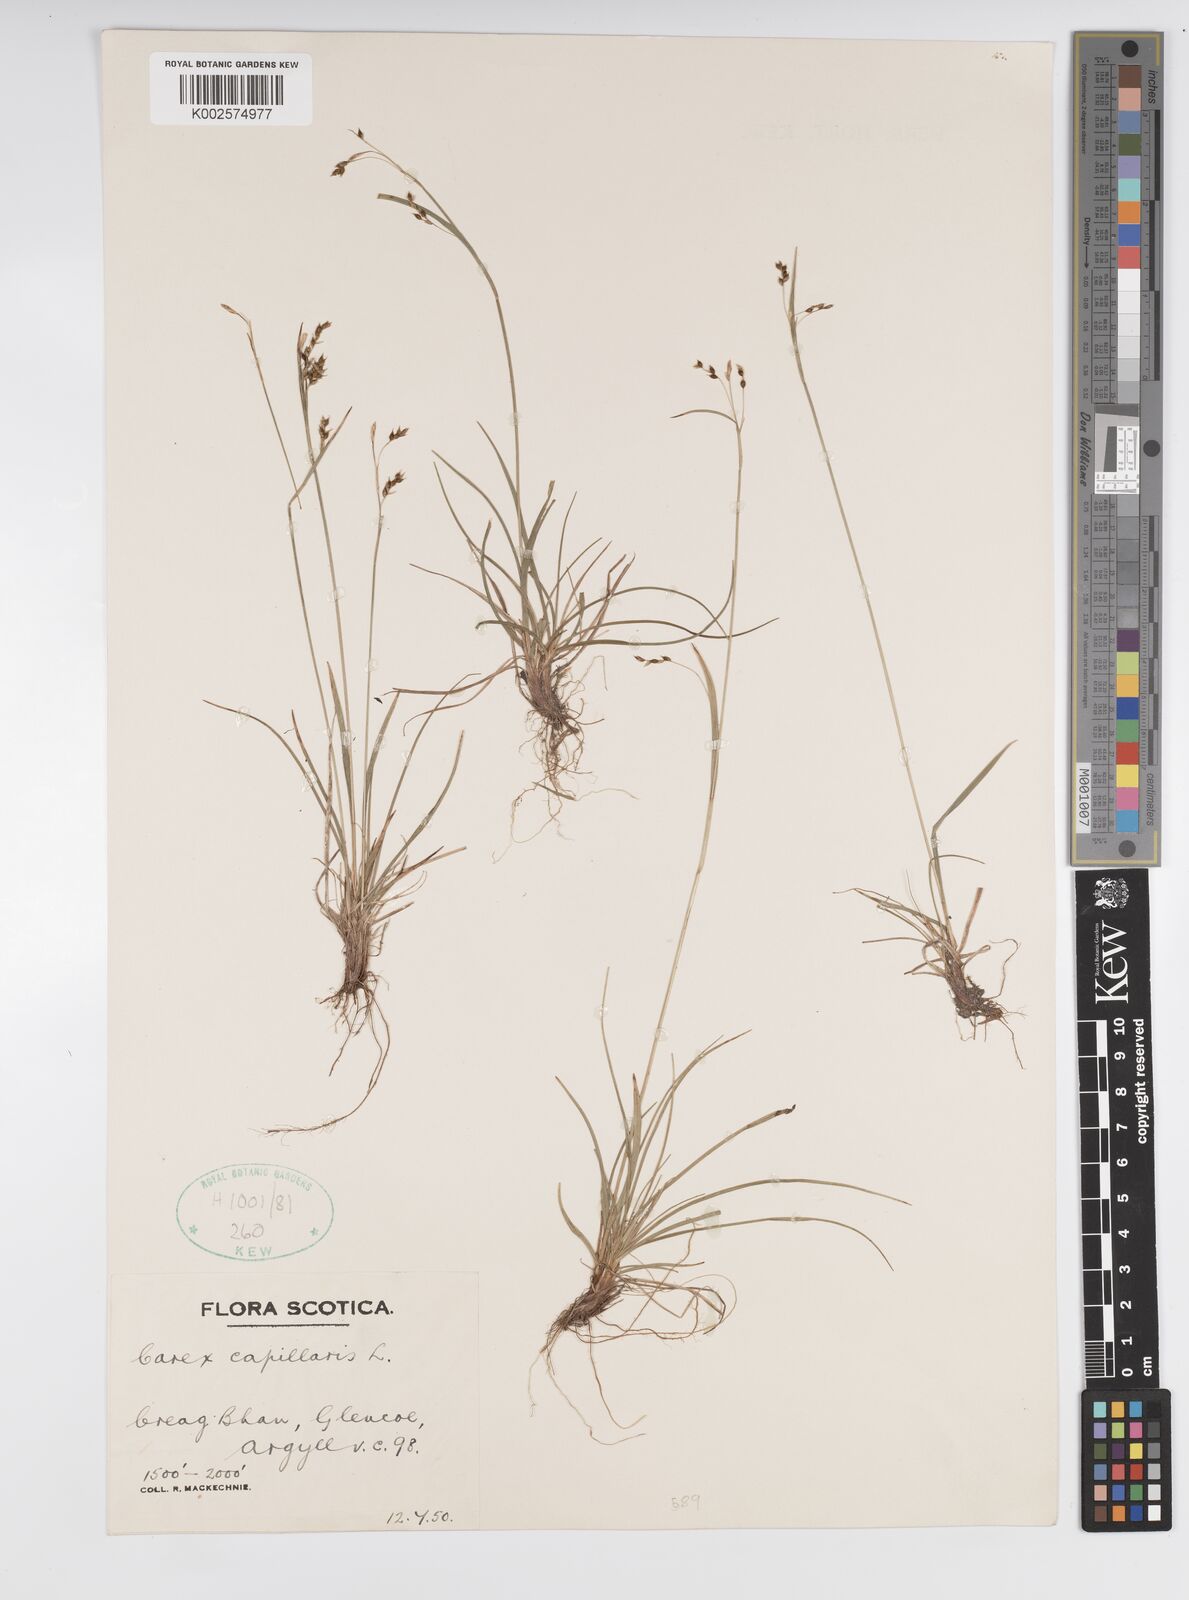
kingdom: Plantae
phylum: Tracheophyta
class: Liliopsida
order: Poales
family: Cyperaceae
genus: Carex
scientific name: Carex capillaris
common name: Hair sedge
